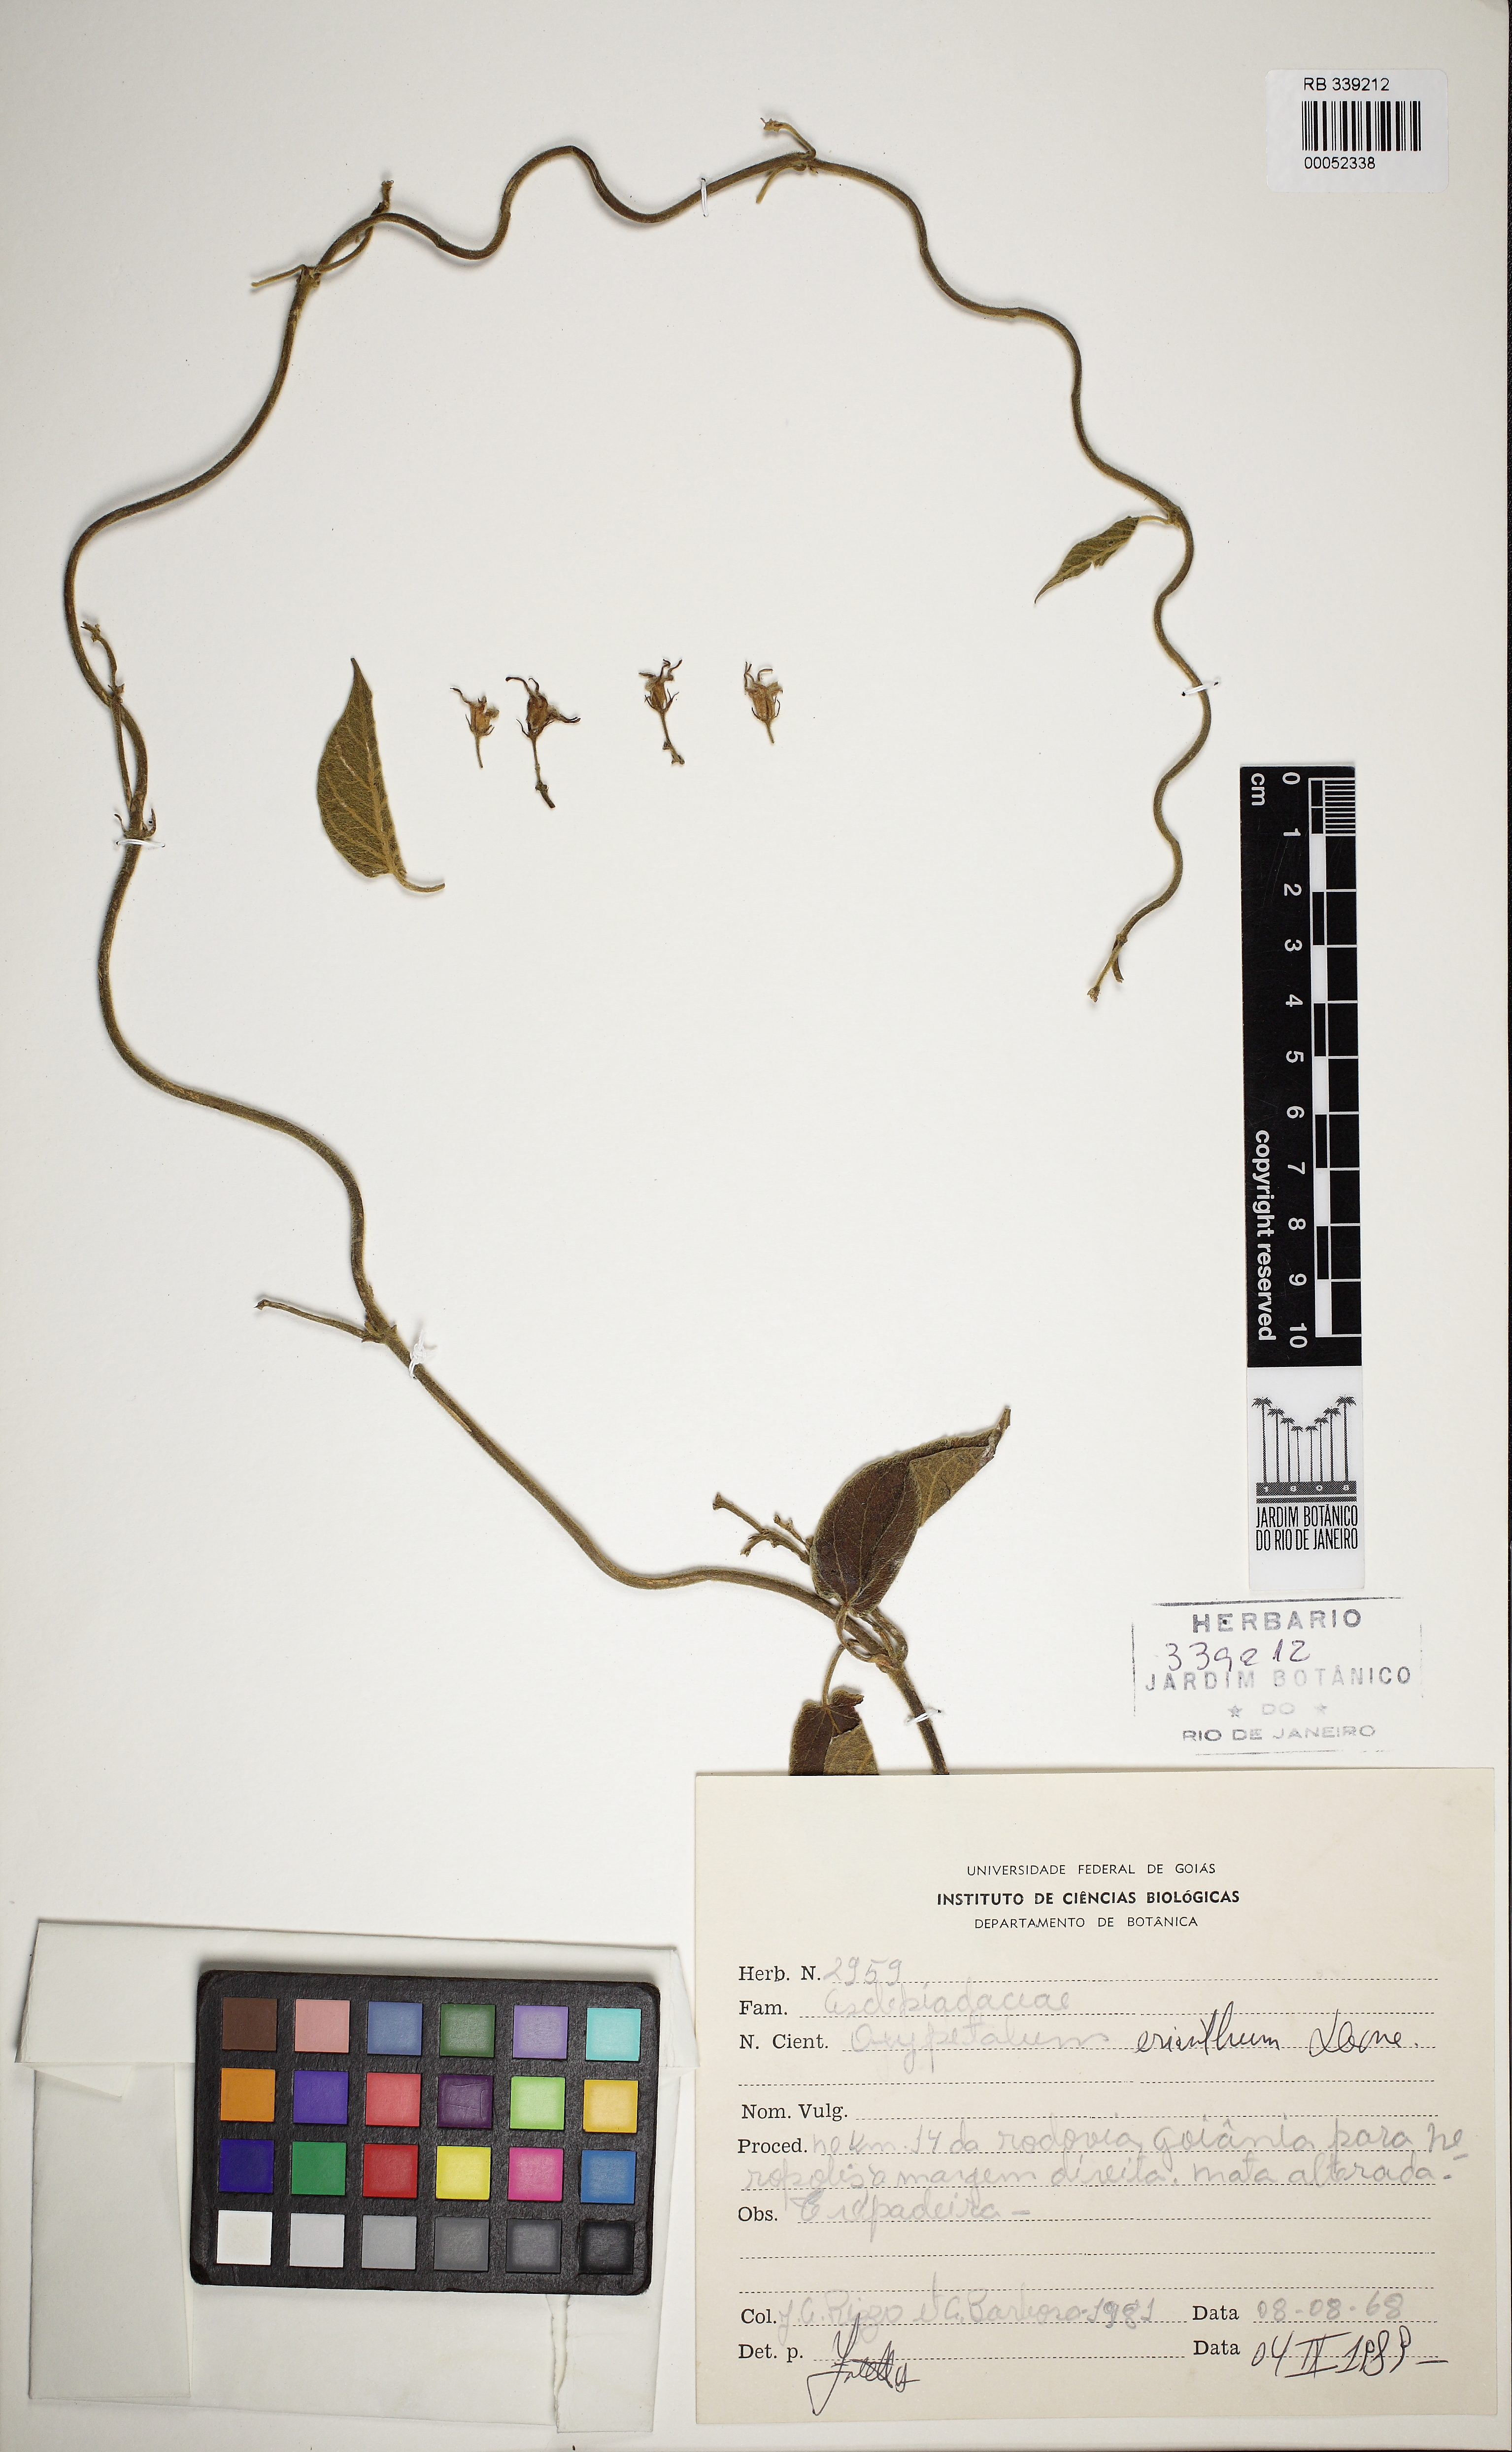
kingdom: Plantae
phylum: Tracheophyta
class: Magnoliopsida
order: Gentianales
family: Apocynaceae
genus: Oxypetalum
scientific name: Oxypetalum foliosum
